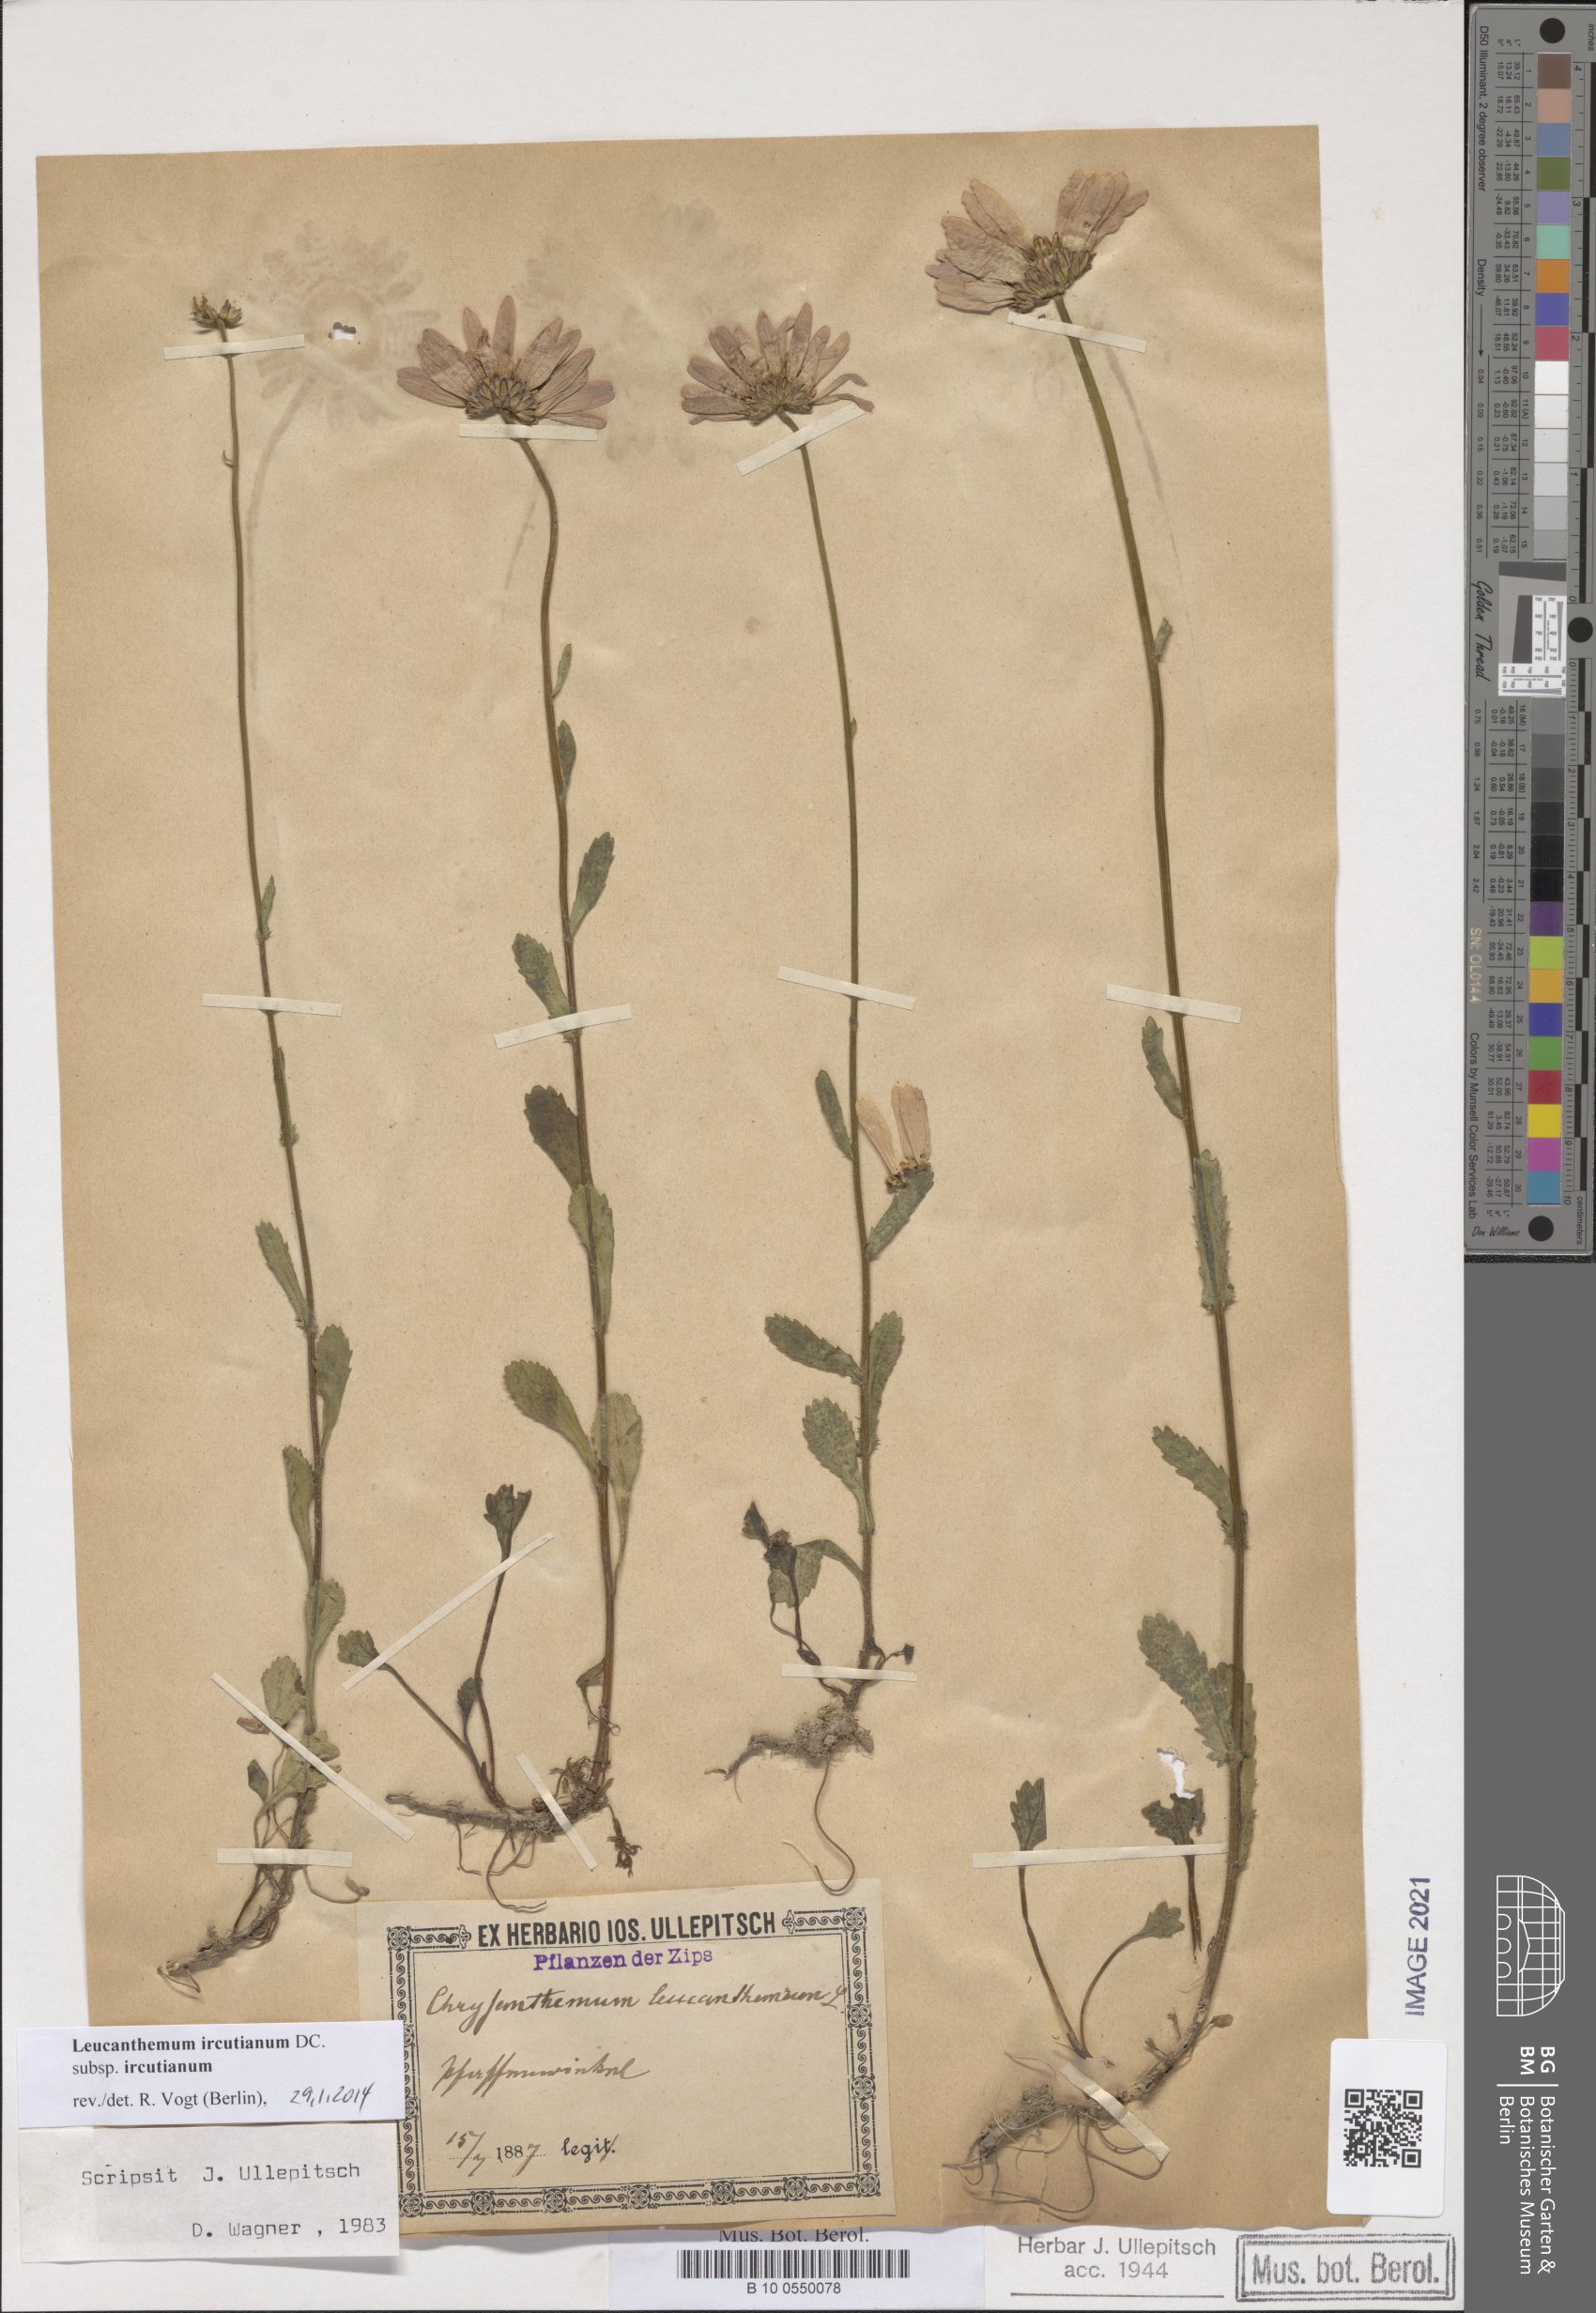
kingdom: Plantae
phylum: Tracheophyta
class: Magnoliopsida
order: Asterales
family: Asteraceae
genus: Leucanthemum
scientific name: Leucanthemum ircutianum
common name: Daisy
